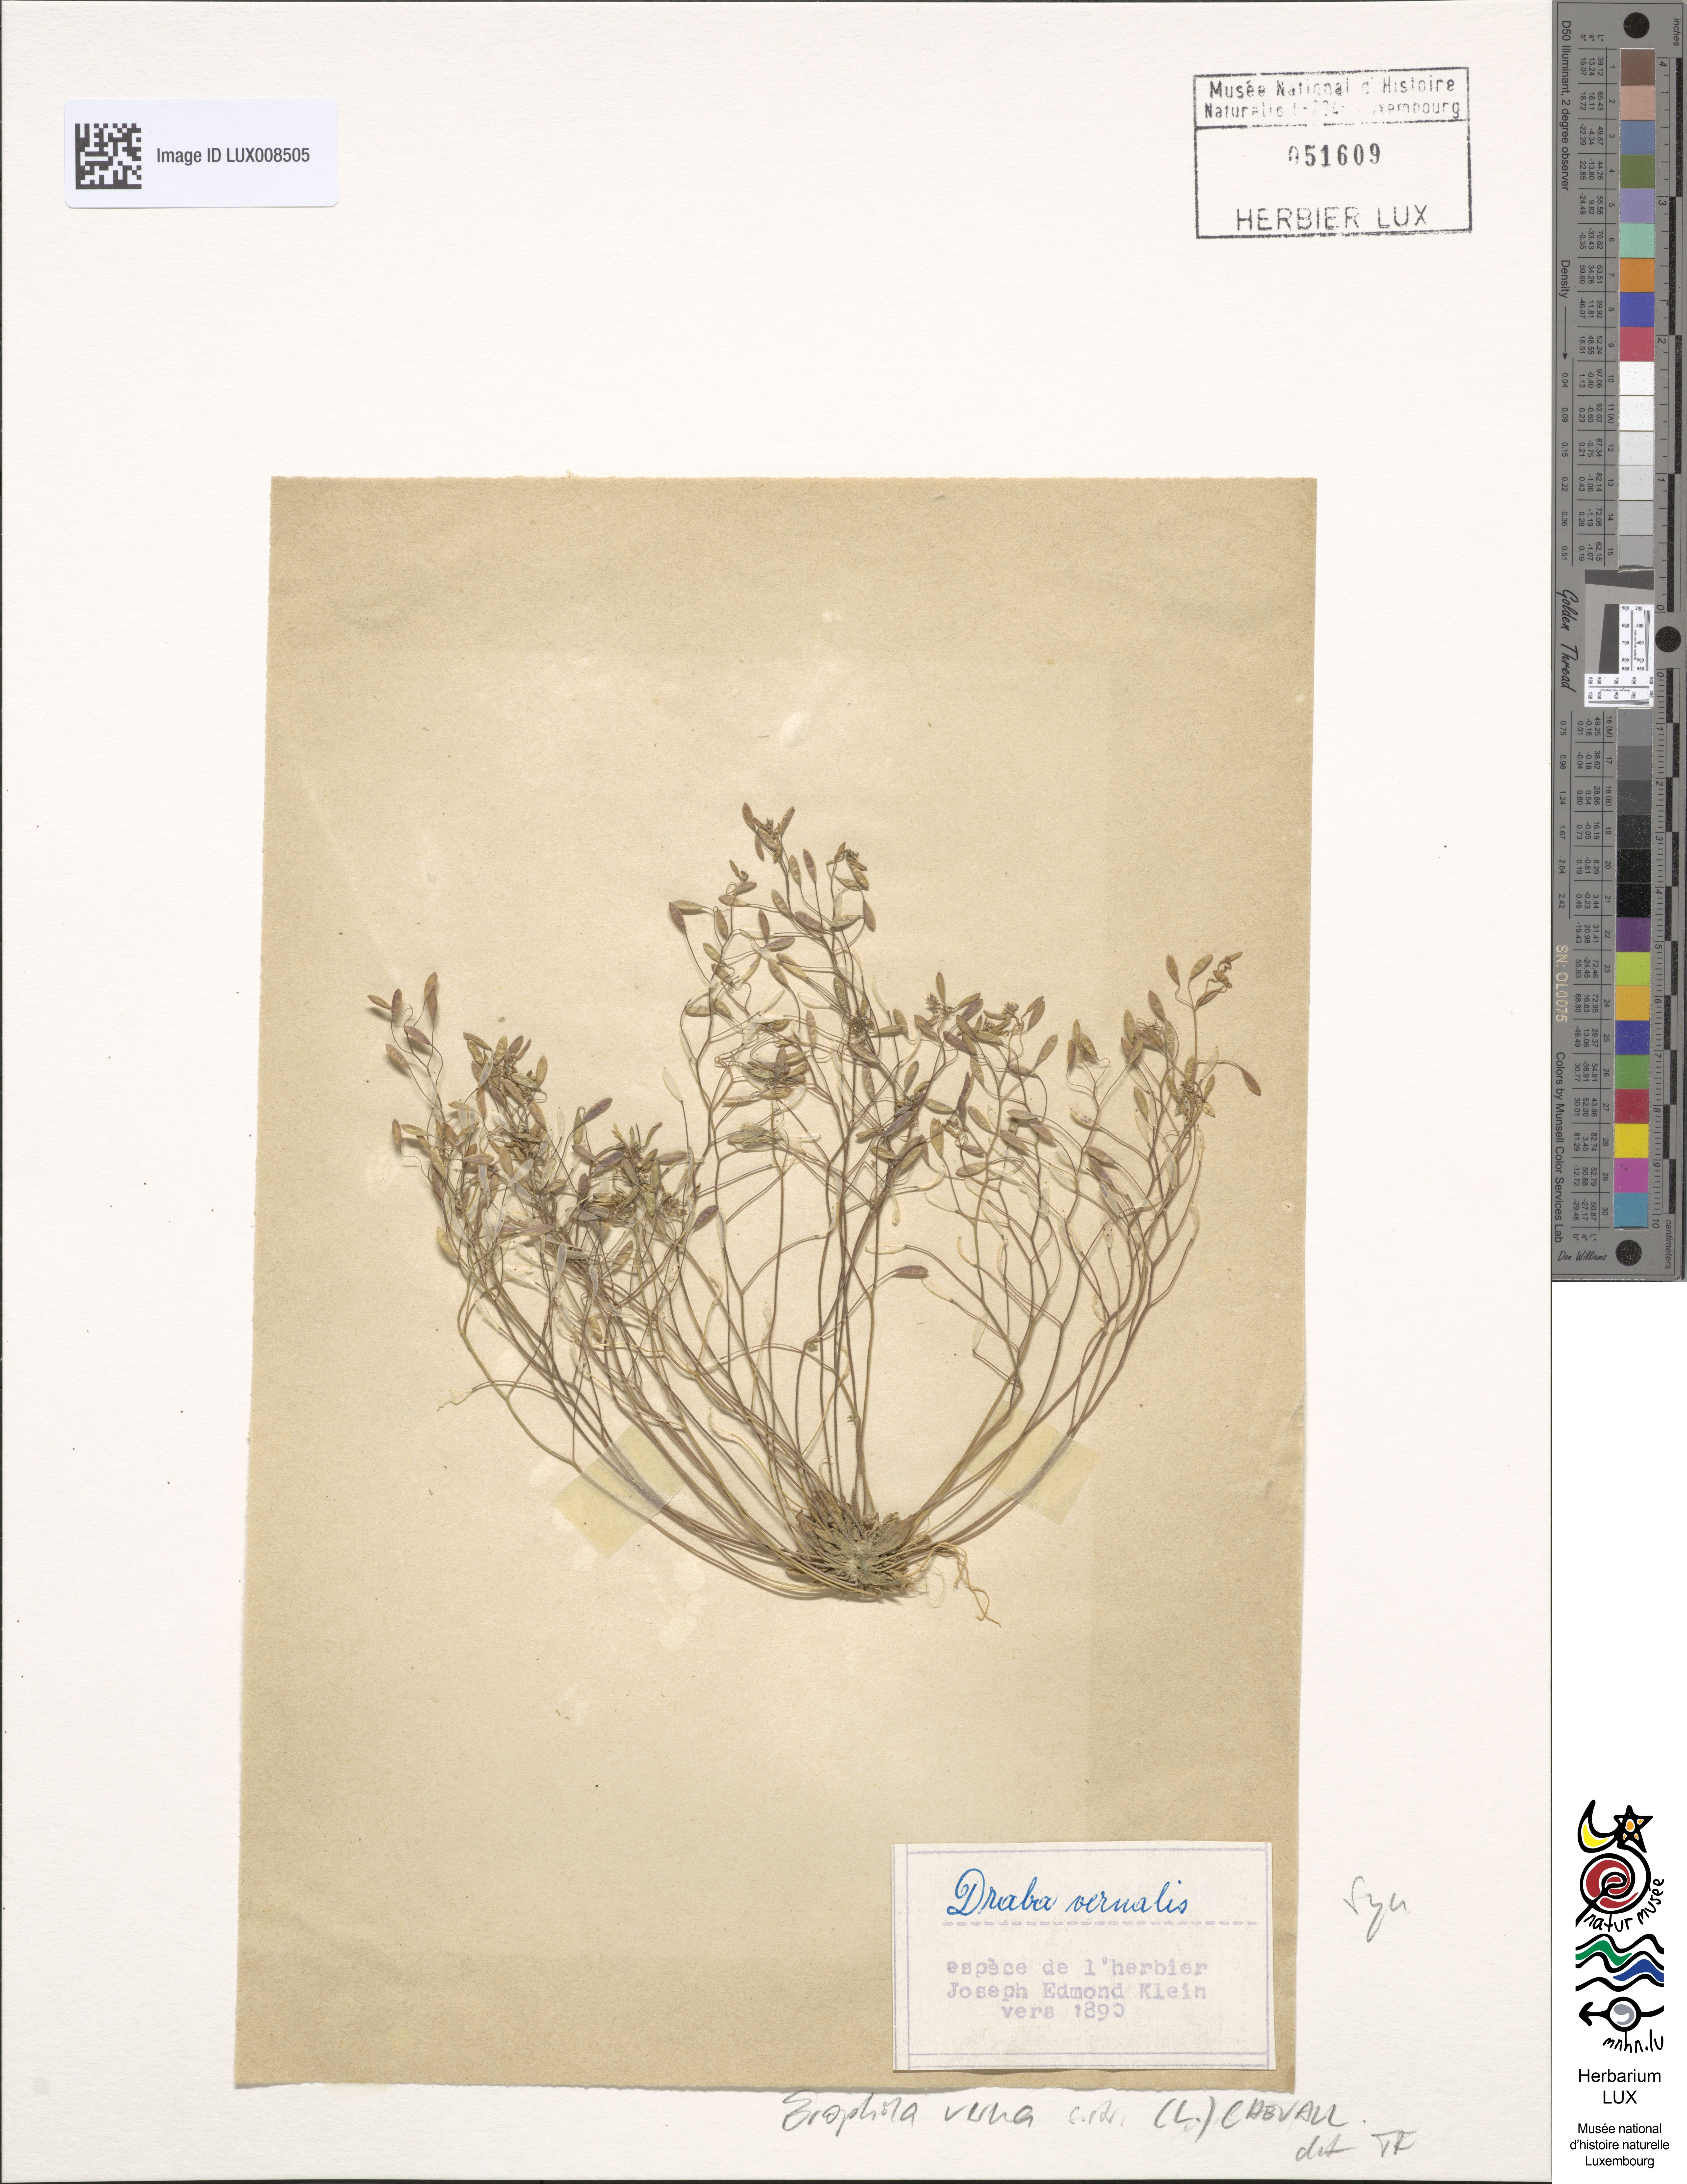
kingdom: Plantae
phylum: Tracheophyta
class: Magnoliopsida
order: Brassicales
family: Brassicaceae
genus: Draba
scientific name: Draba verna
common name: Spring draba
